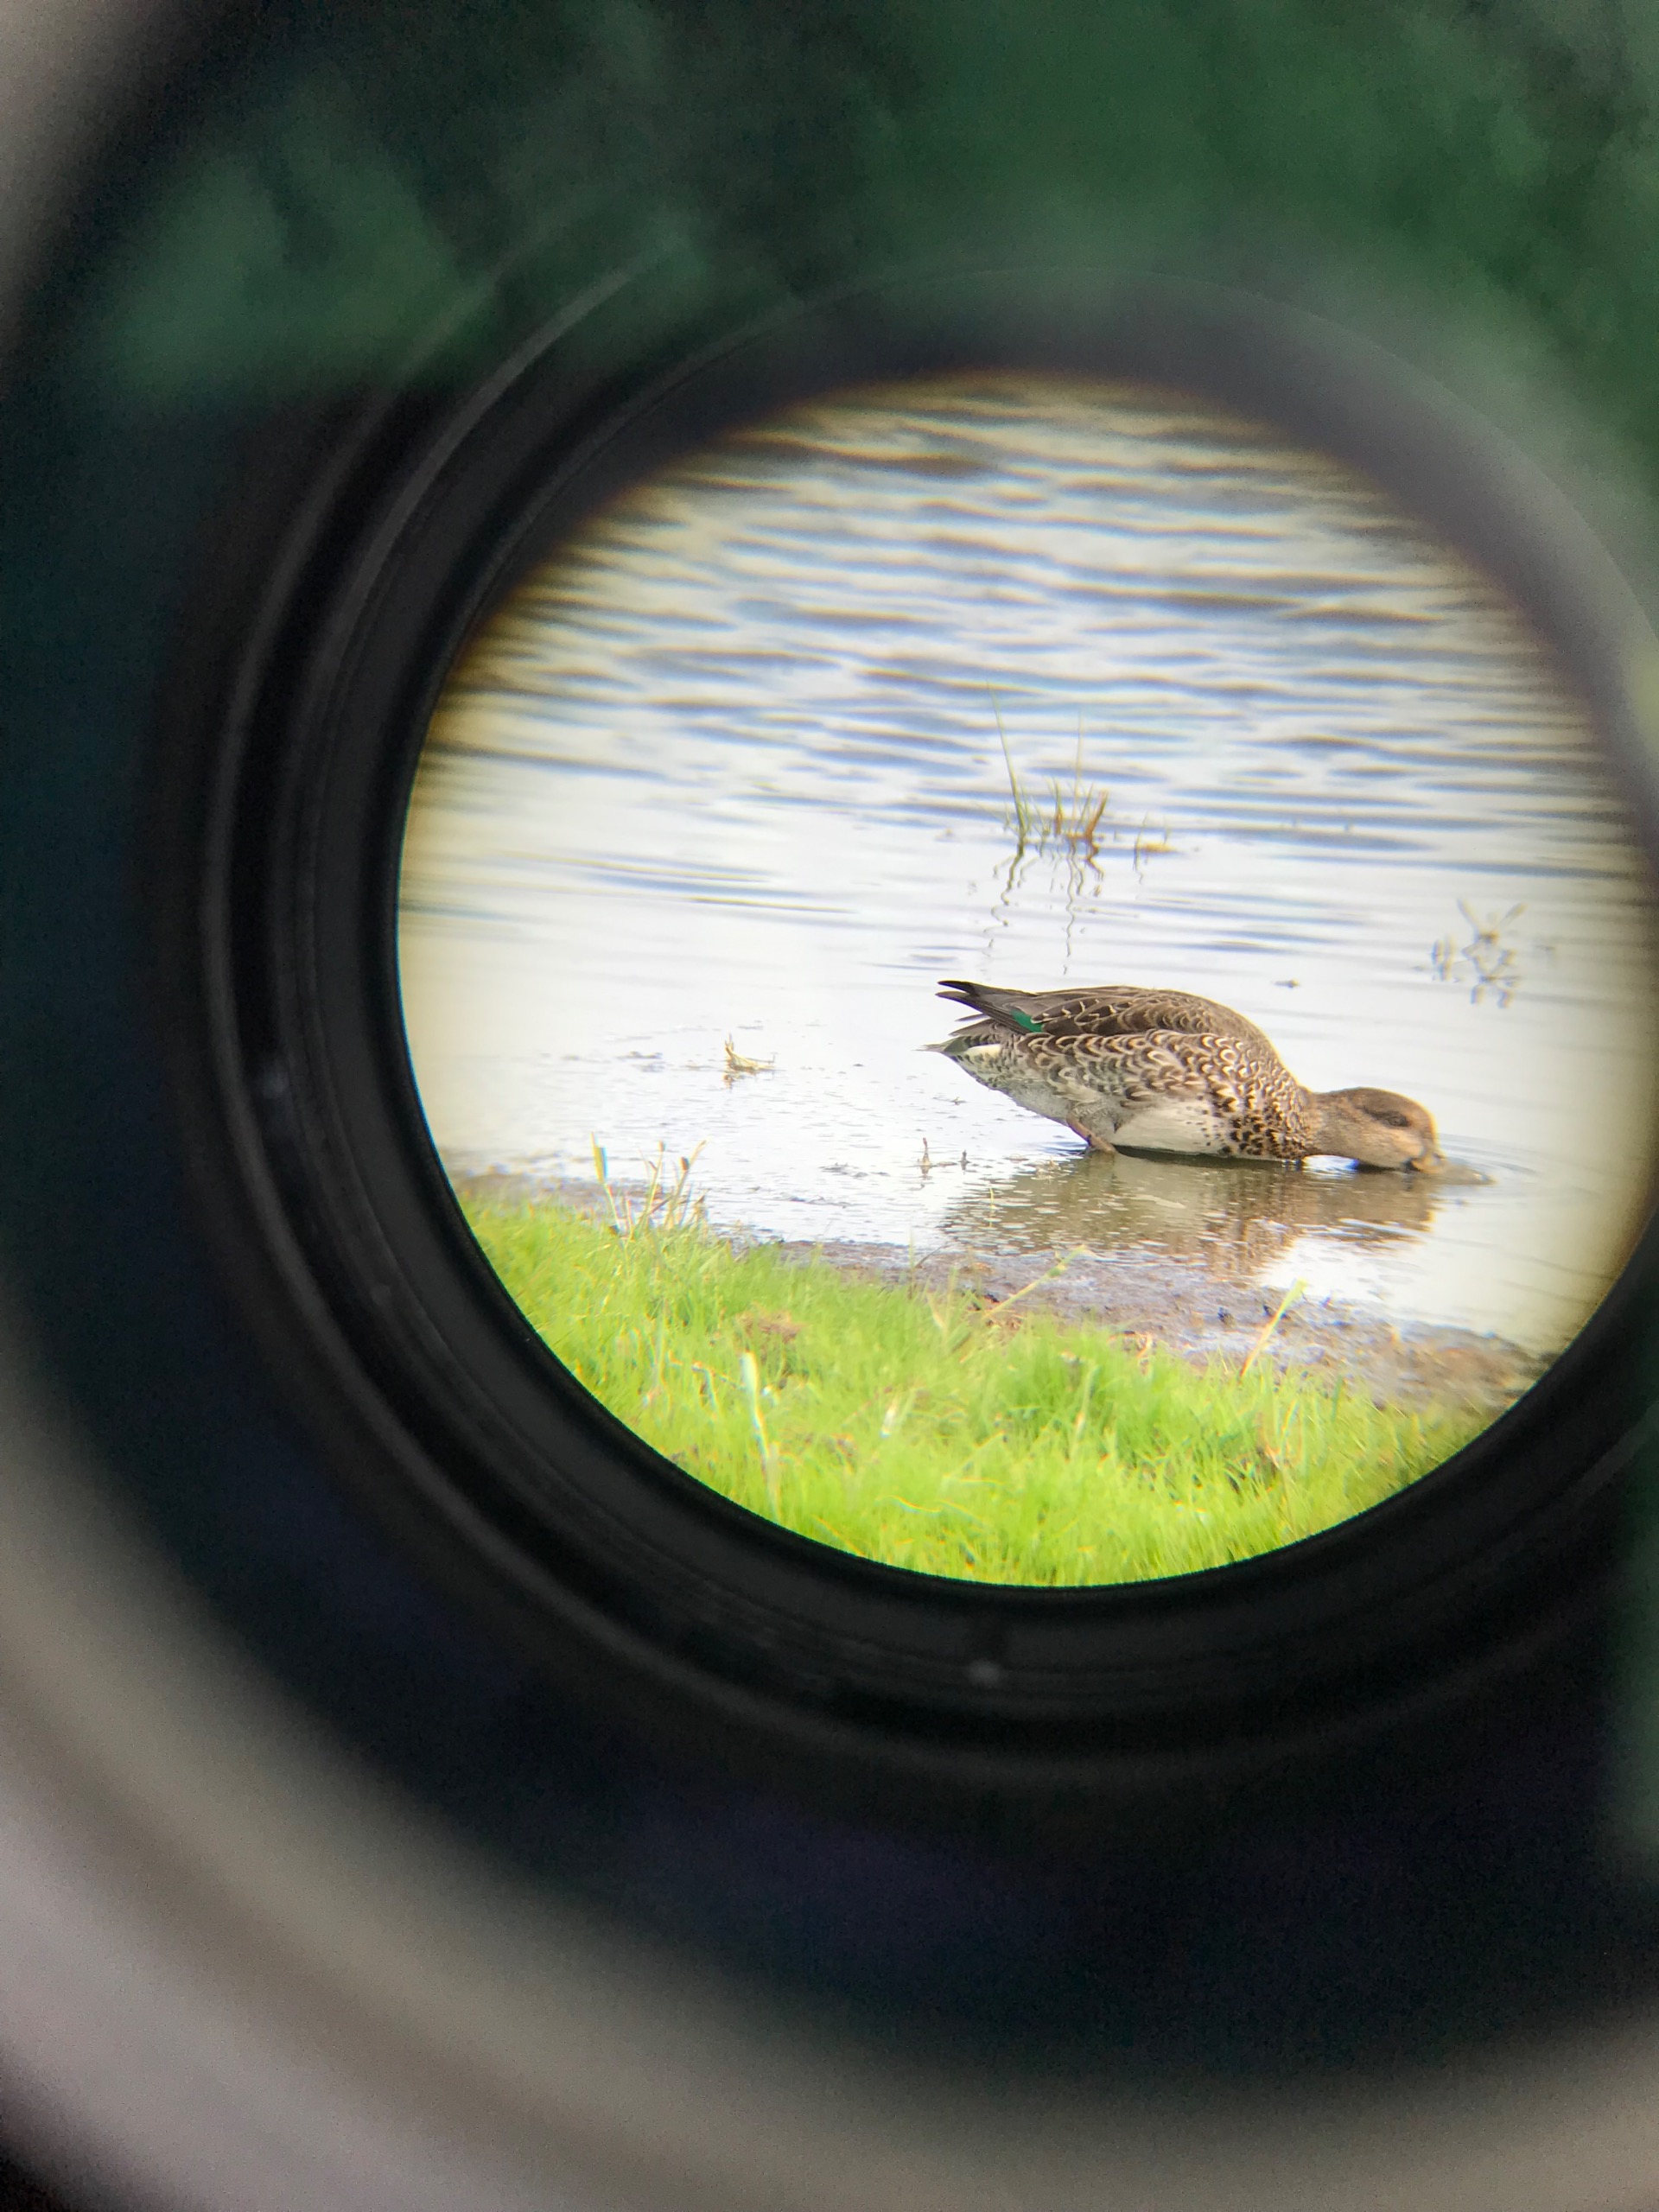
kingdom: Animalia
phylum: Chordata
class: Aves
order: Anseriformes
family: Anatidae
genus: Anas
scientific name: Anas crecca
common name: Krikand
